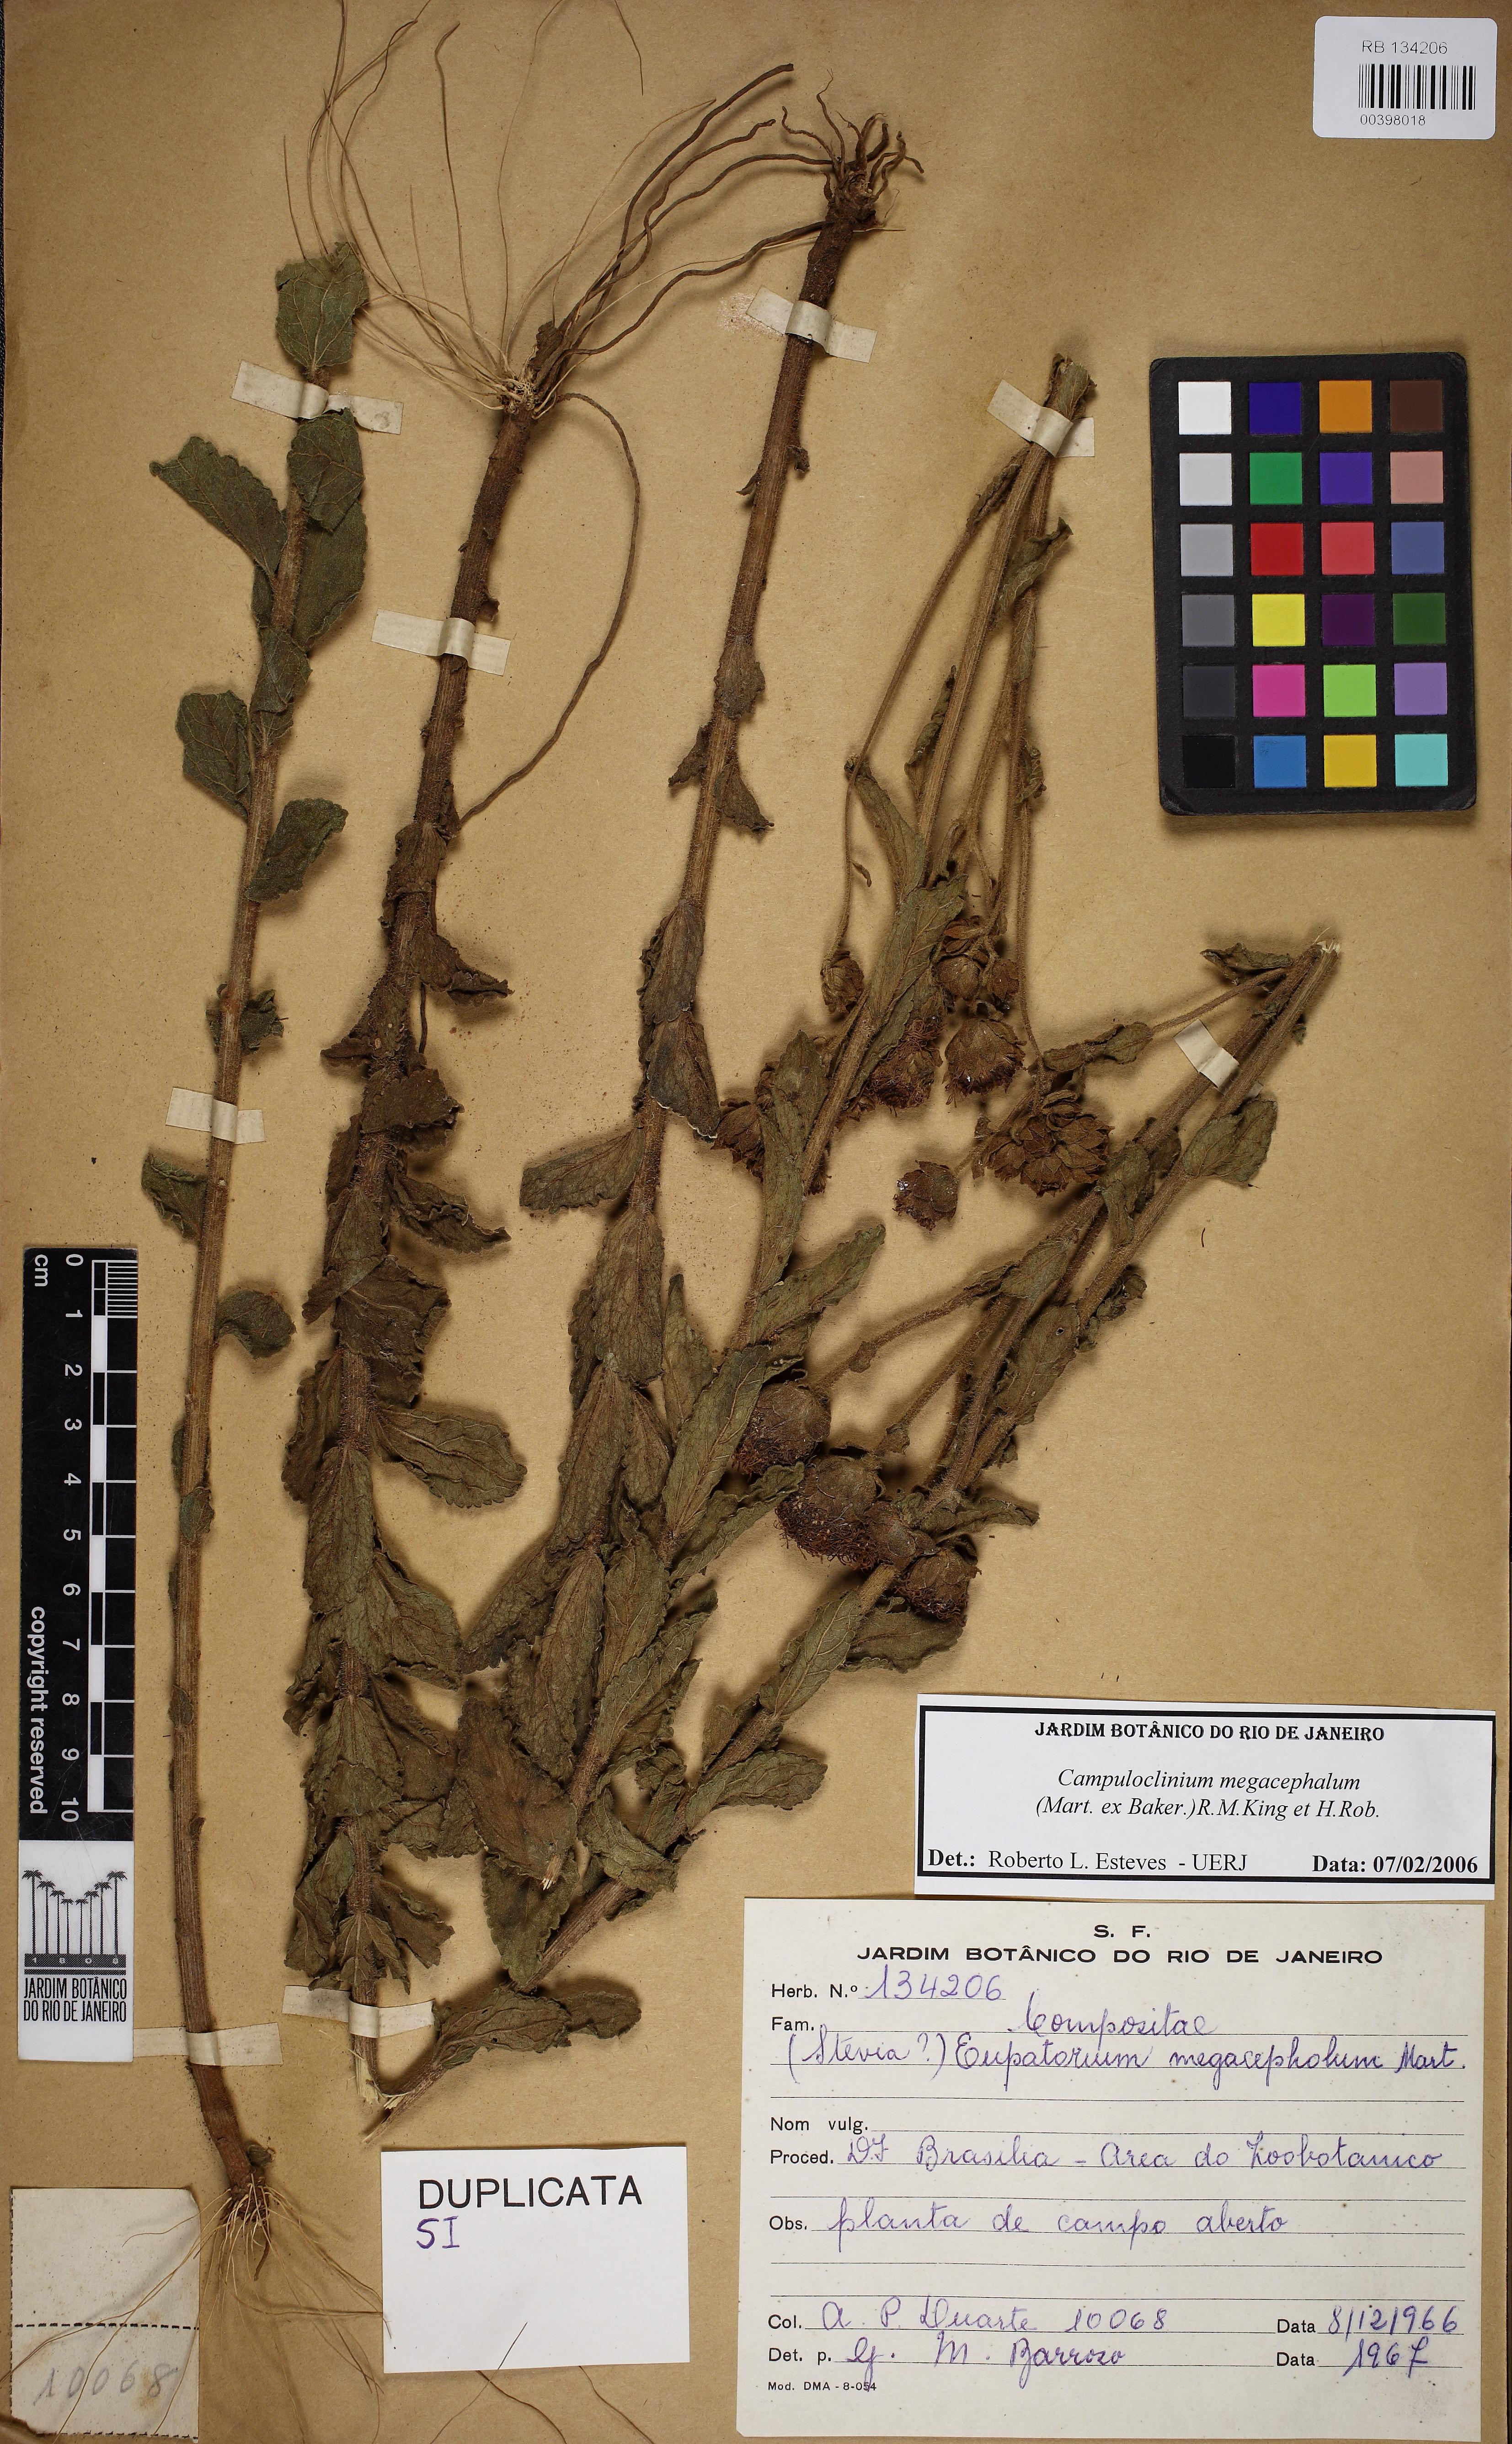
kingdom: Plantae
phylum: Tracheophyta
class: Magnoliopsida
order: Asterales
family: Asteraceae
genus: Campuloclinium
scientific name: Campuloclinium megacephalum
